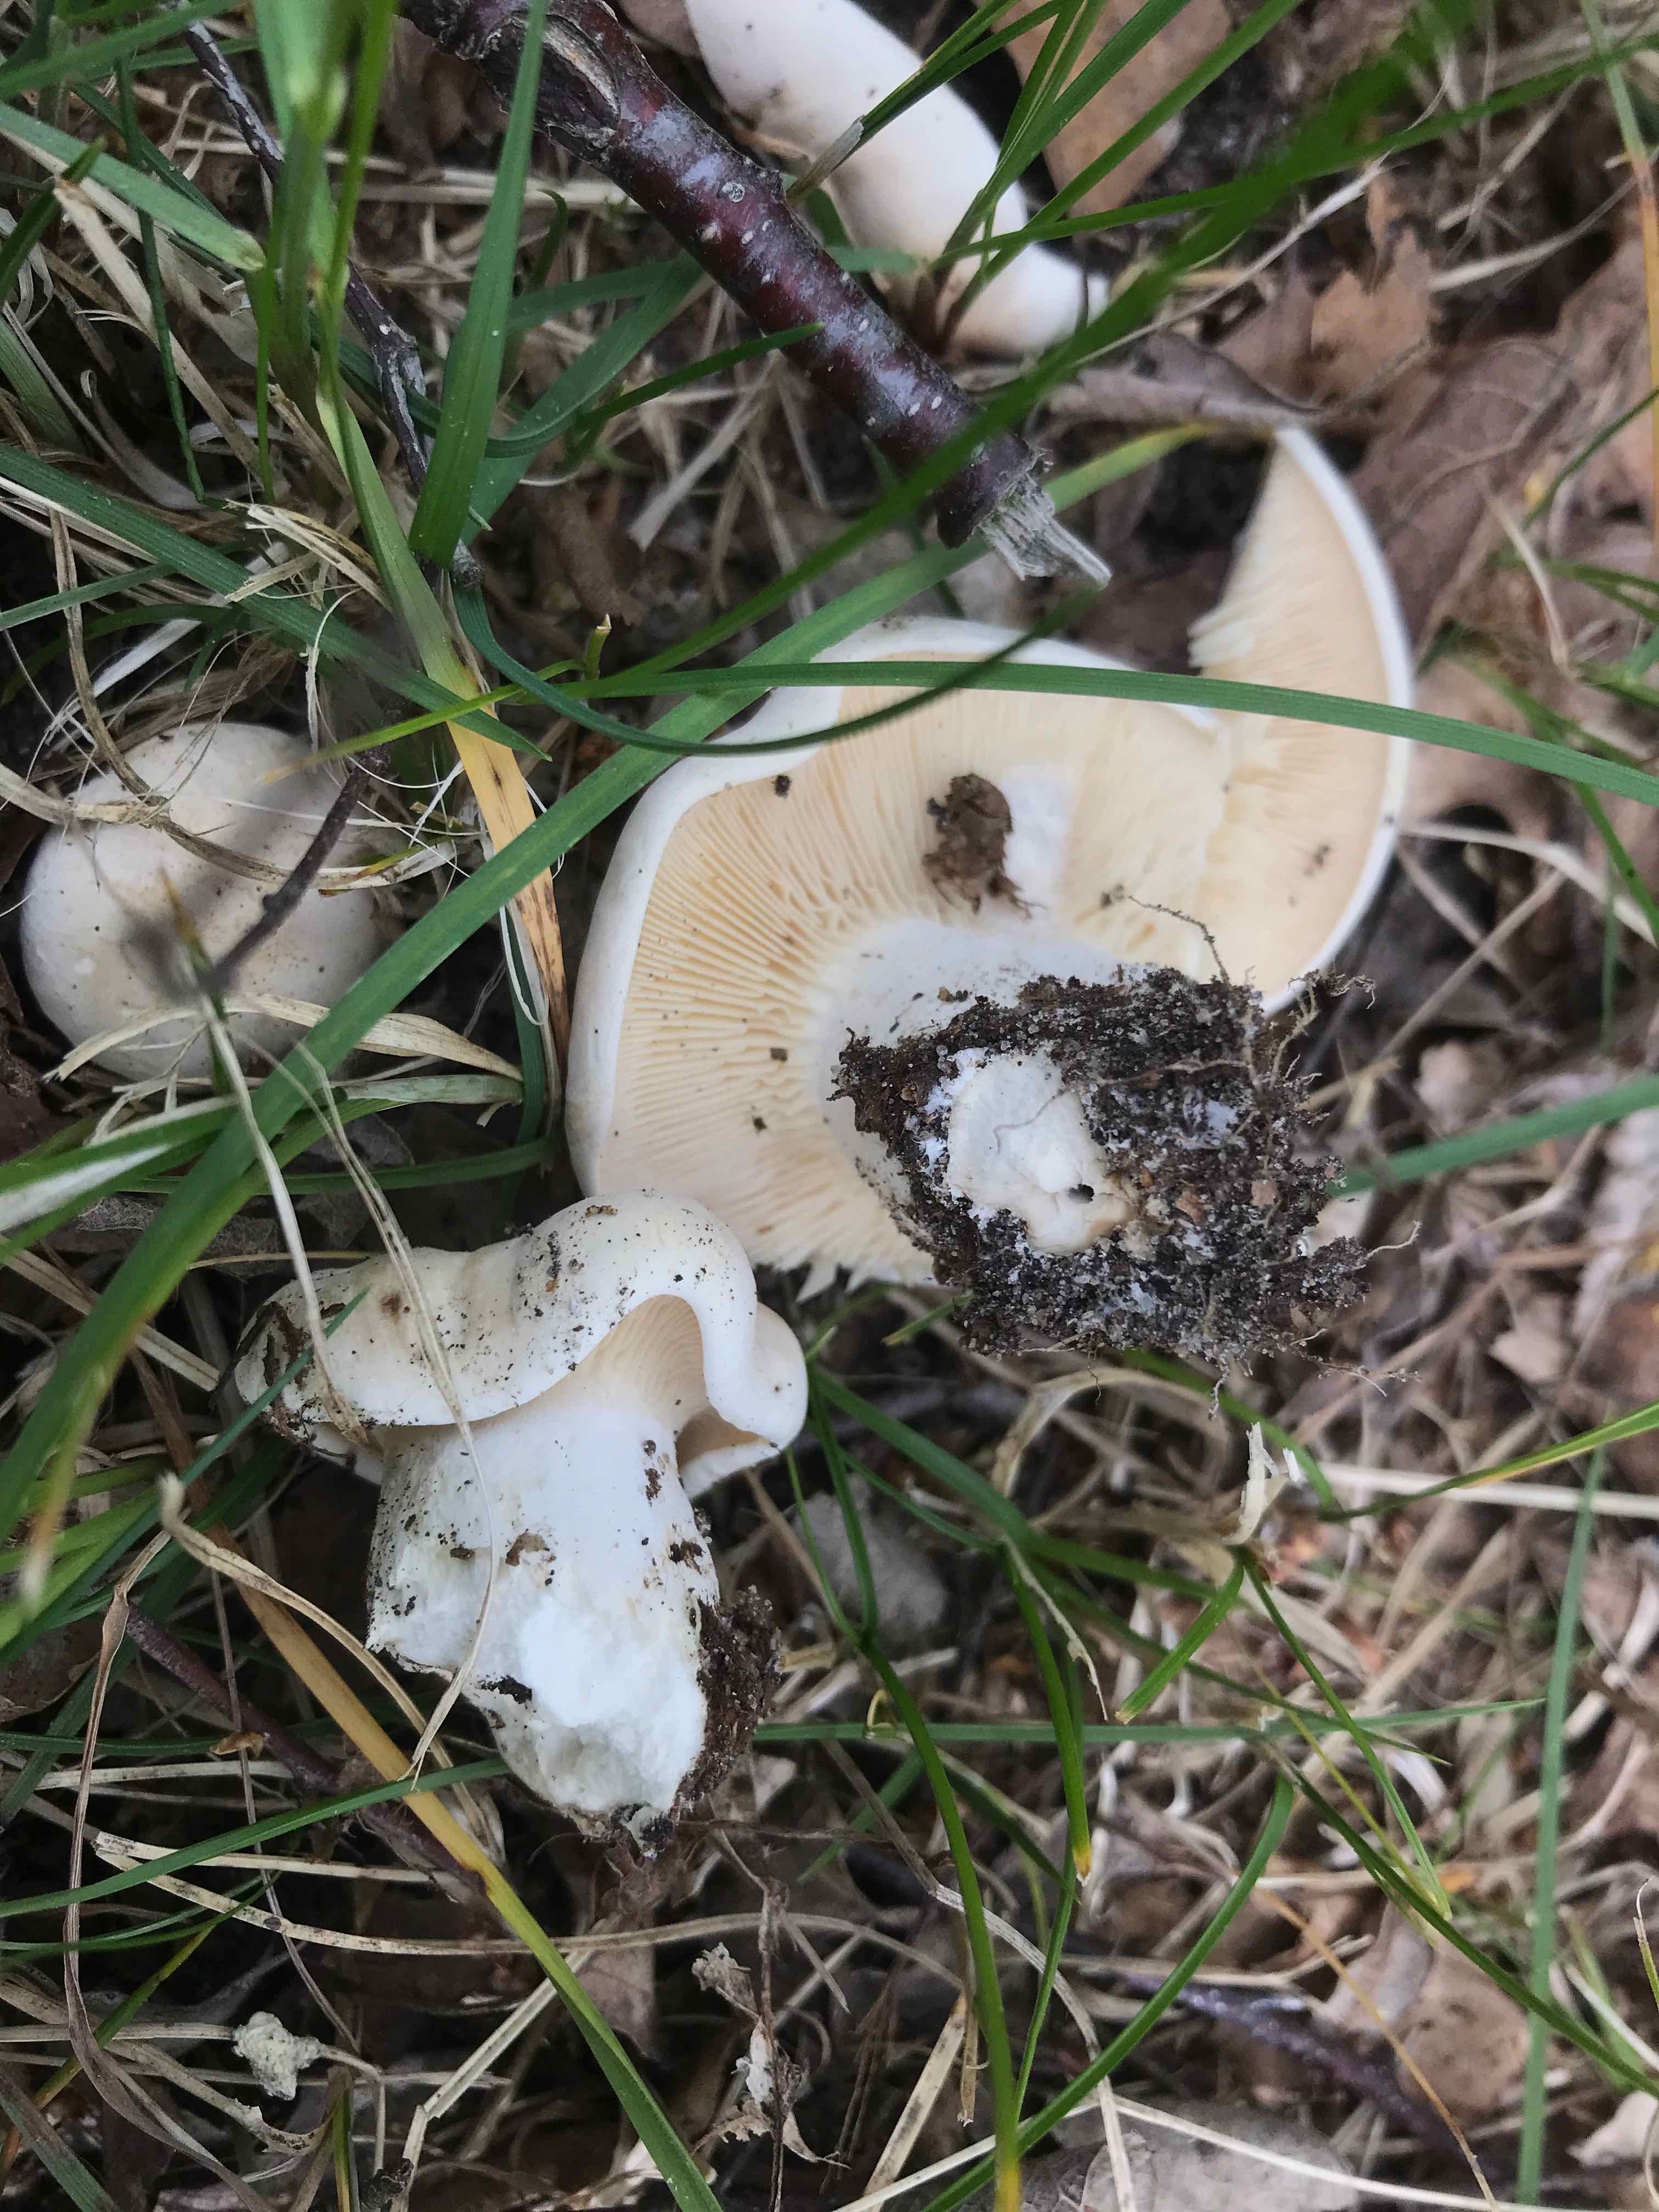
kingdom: Fungi
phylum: Basidiomycota
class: Agaricomycetes
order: Agaricales
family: Lyophyllaceae
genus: Calocybe
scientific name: Calocybe gambosa
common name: vårmusseron
